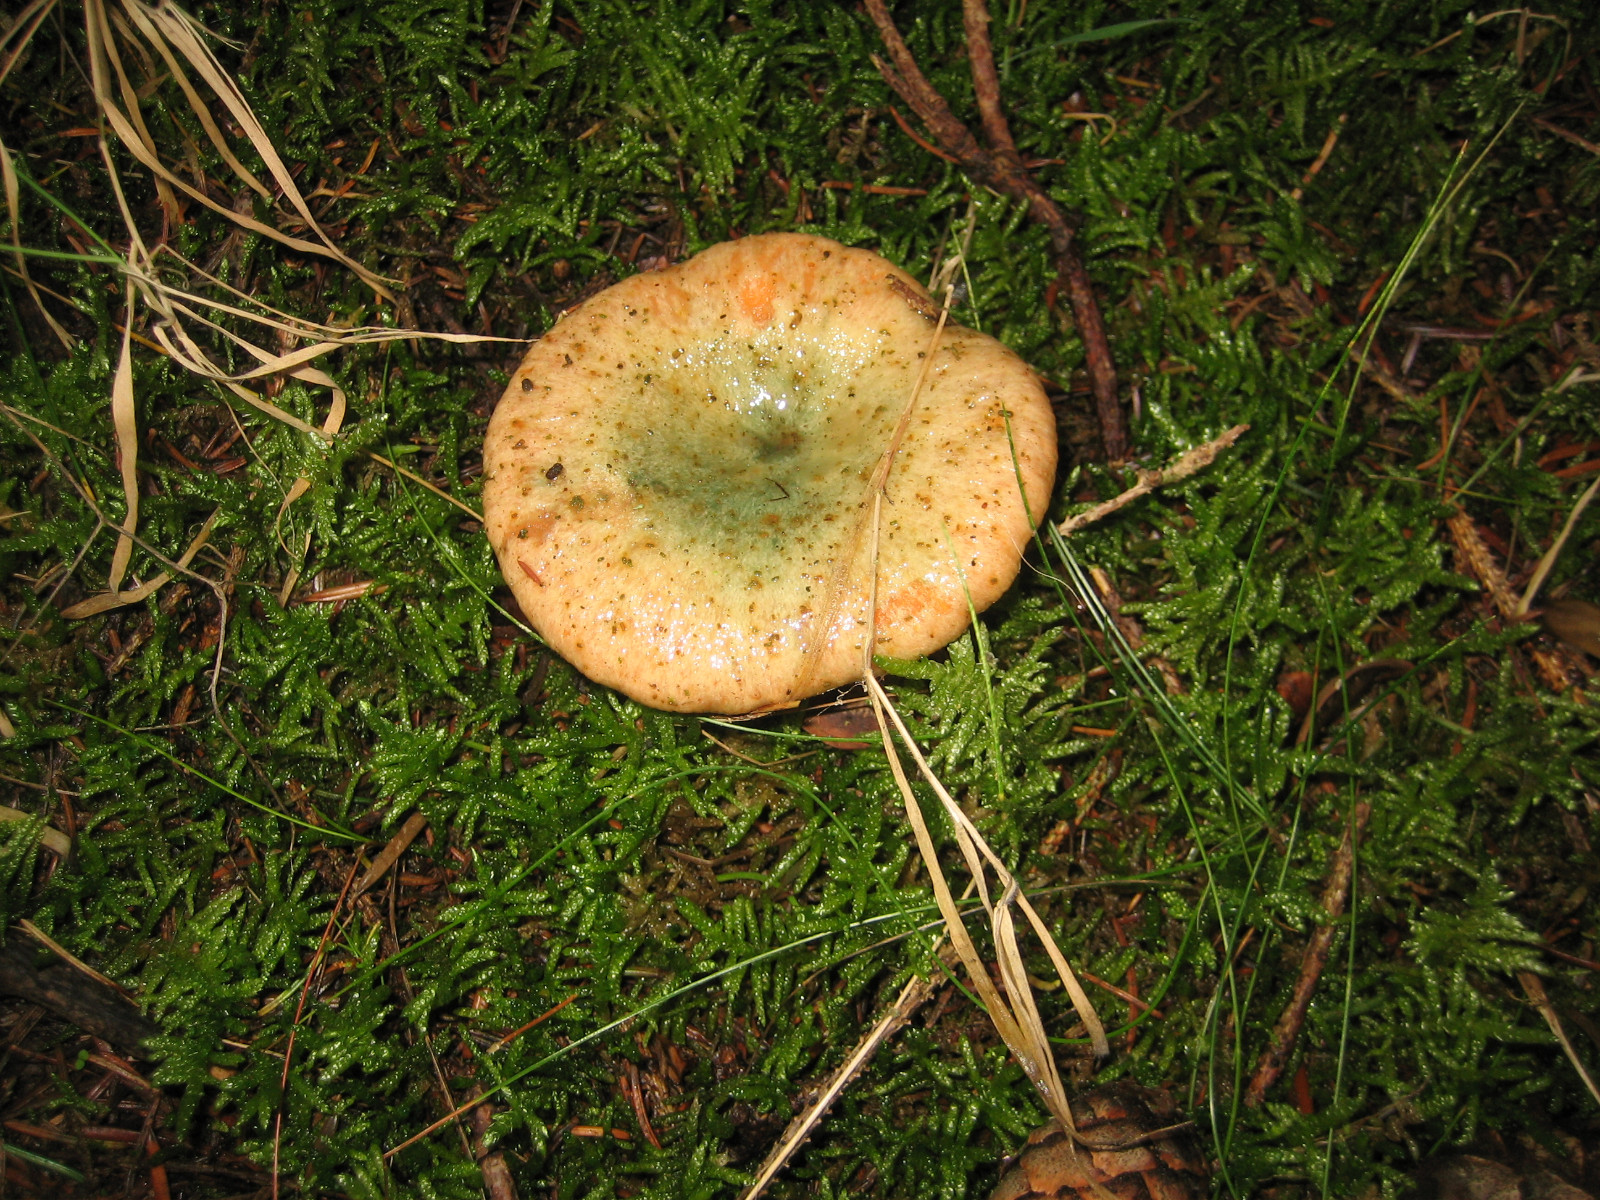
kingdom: Fungi
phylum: Basidiomycota
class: Agaricomycetes
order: Russulales
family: Russulaceae
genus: Lactarius
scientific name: Lactarius deterrimus
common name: gran-mælkehat
